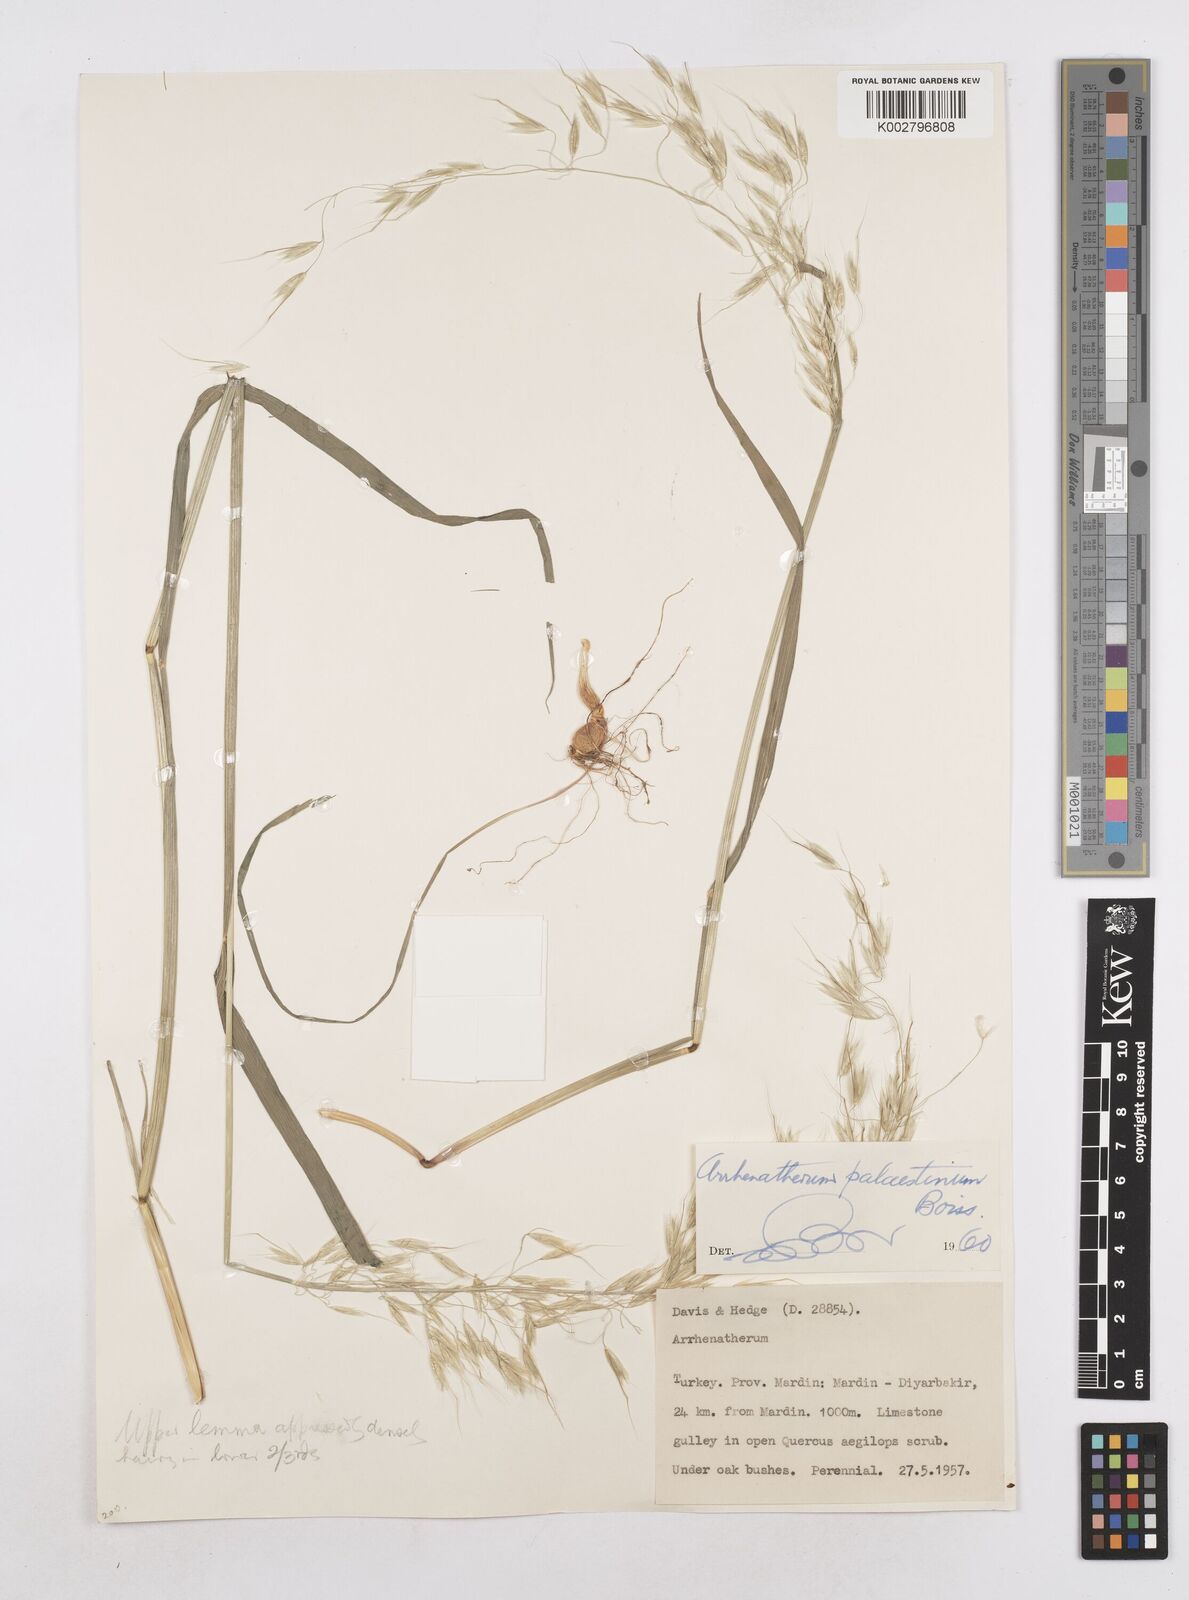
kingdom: Plantae
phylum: Tracheophyta
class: Liliopsida
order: Poales
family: Poaceae
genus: Arrhenatherum
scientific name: Arrhenatherum palaestinum
